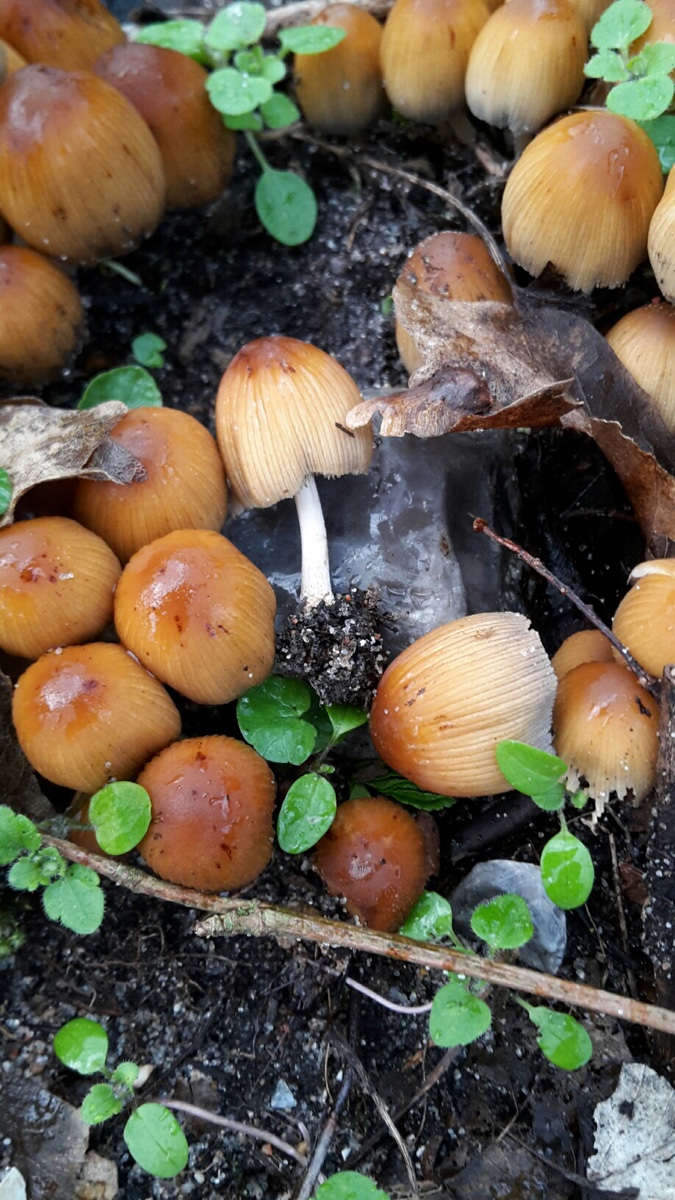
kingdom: Fungi
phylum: Basidiomycota
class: Agaricomycetes
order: Agaricales
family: Psathyrellaceae
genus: Coprinellus
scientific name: Coprinellus micaceus
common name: glimmer-blækhat
